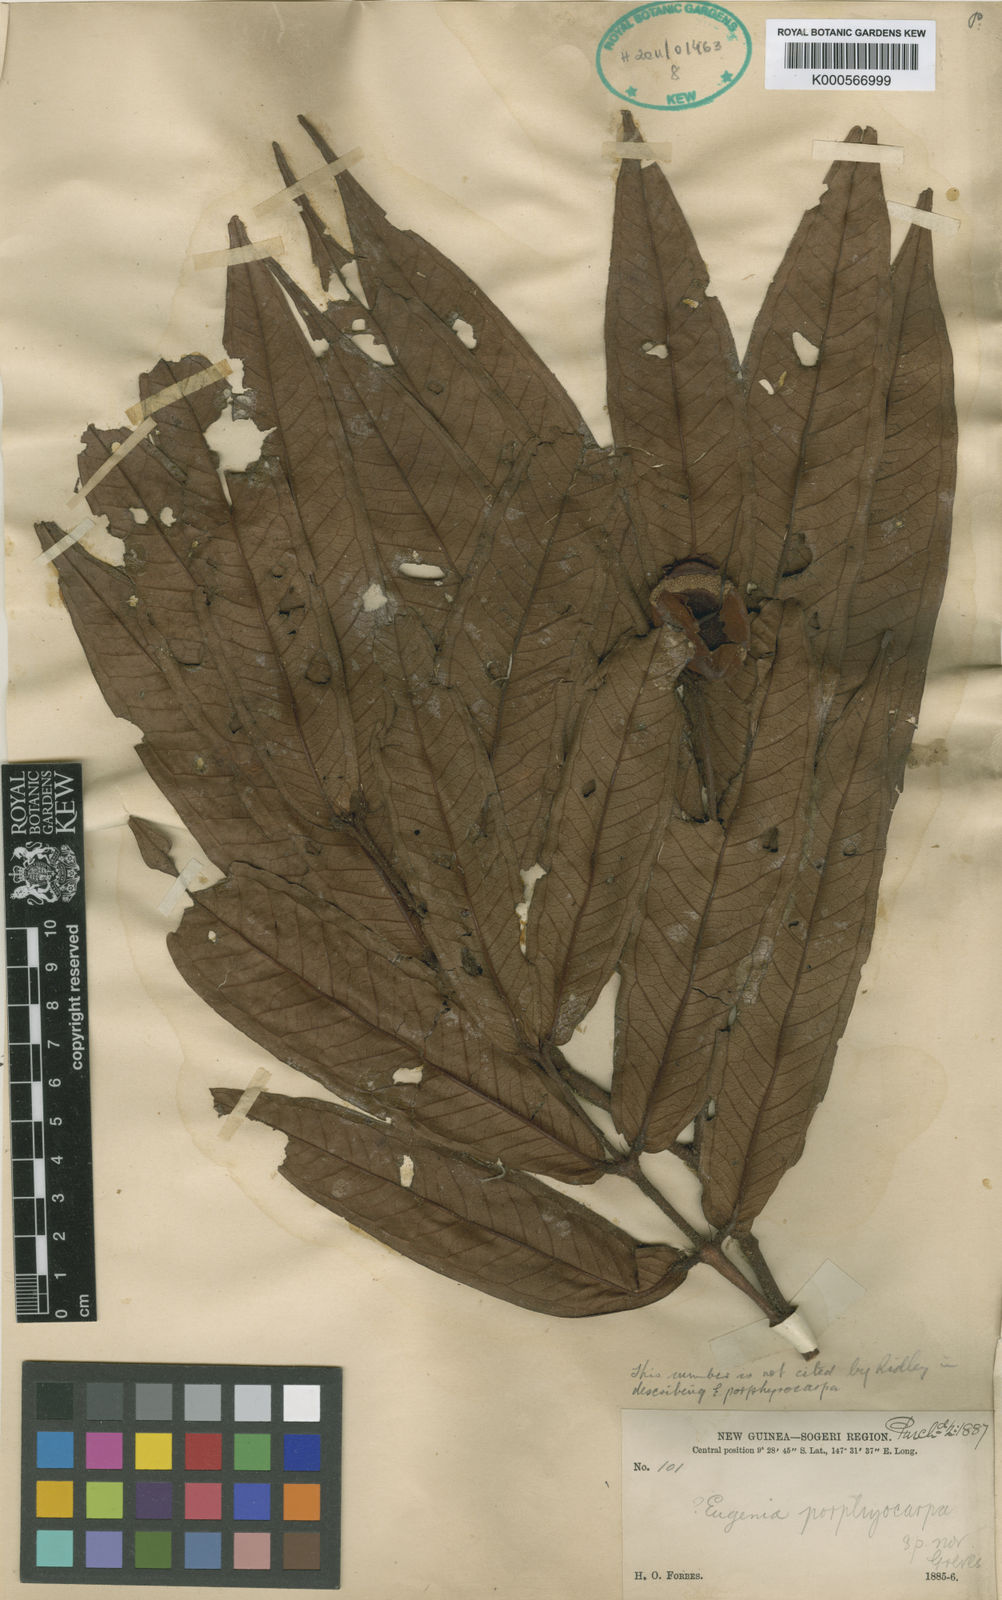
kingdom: Plantae
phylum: Tracheophyta
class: Magnoliopsida
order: Myrtales
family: Myrtaceae
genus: Syzygium
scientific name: Syzygium porphyrocarpum
